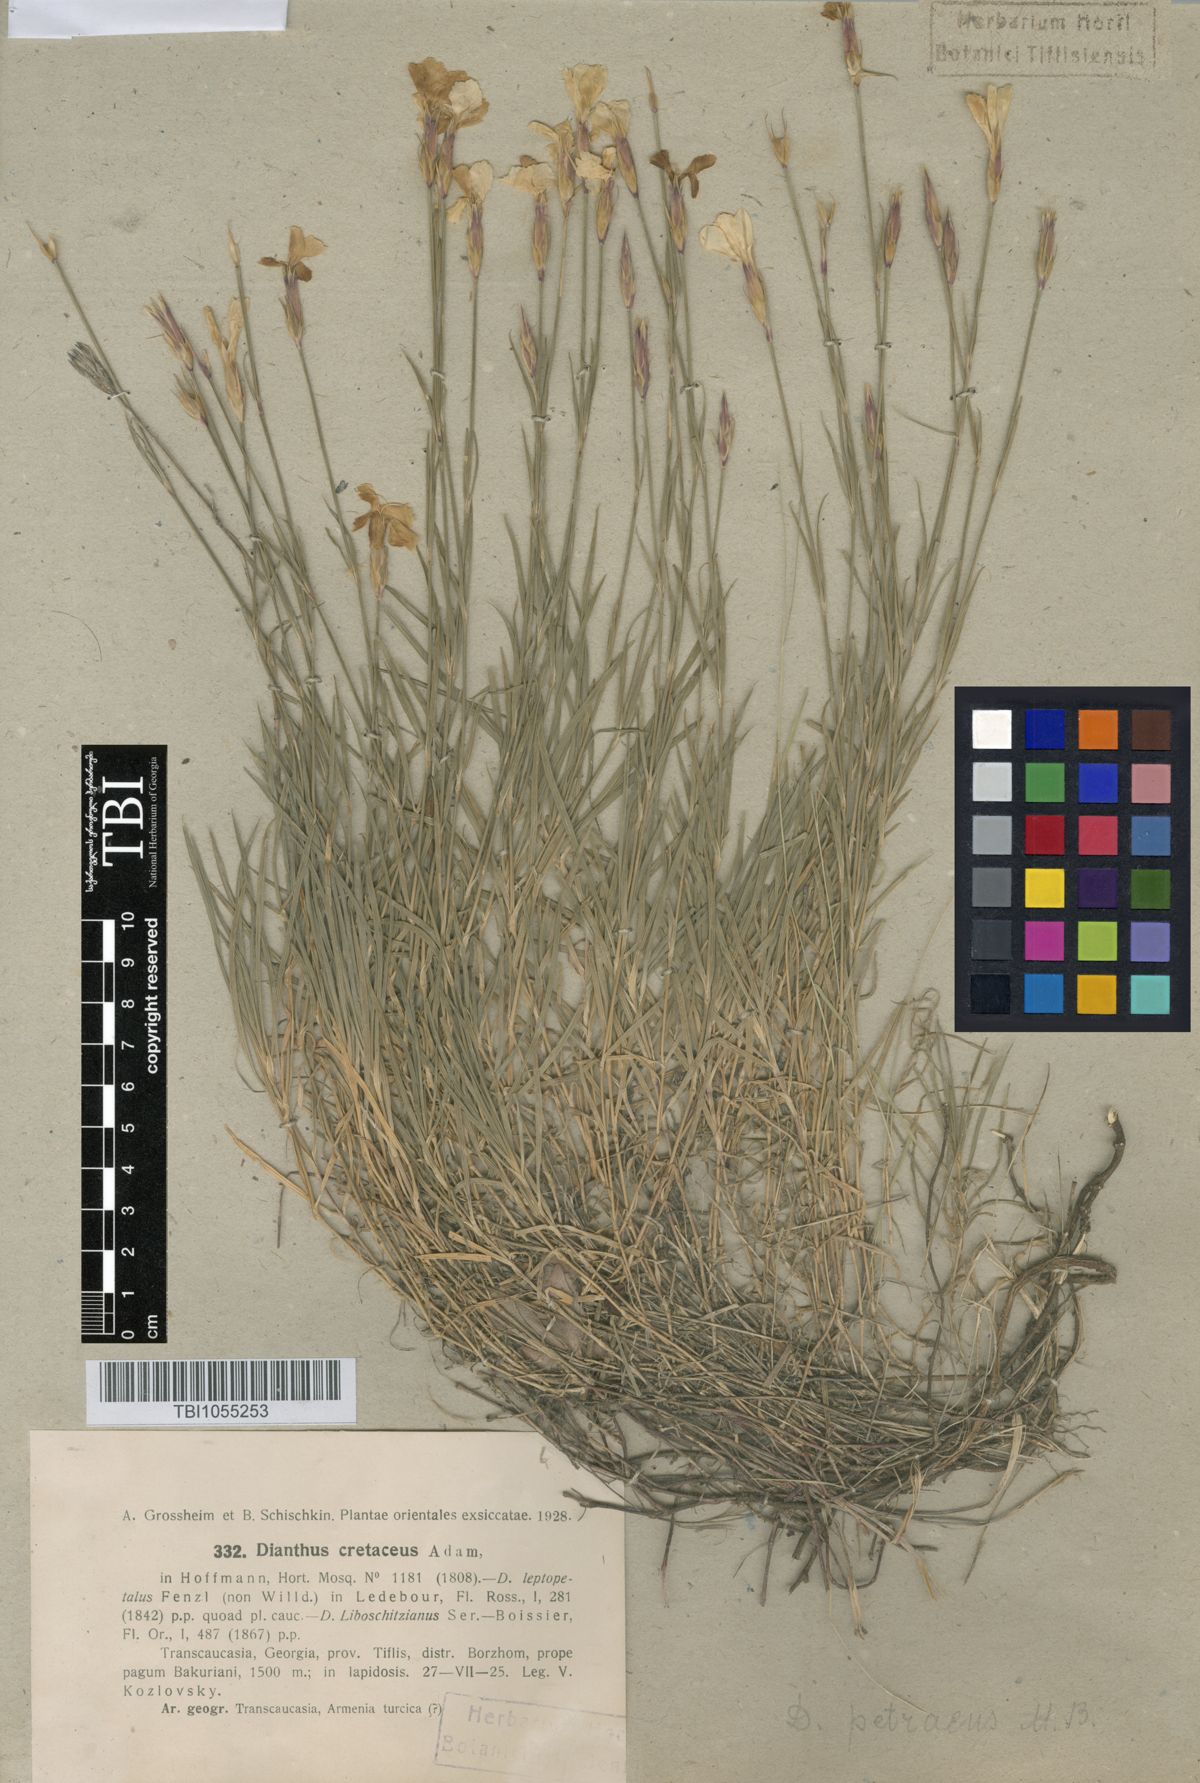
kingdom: Plantae
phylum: Tracheophyta
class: Magnoliopsida
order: Caryophyllales
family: Caryophyllaceae
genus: Dianthus
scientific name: Dianthus cretaceus
